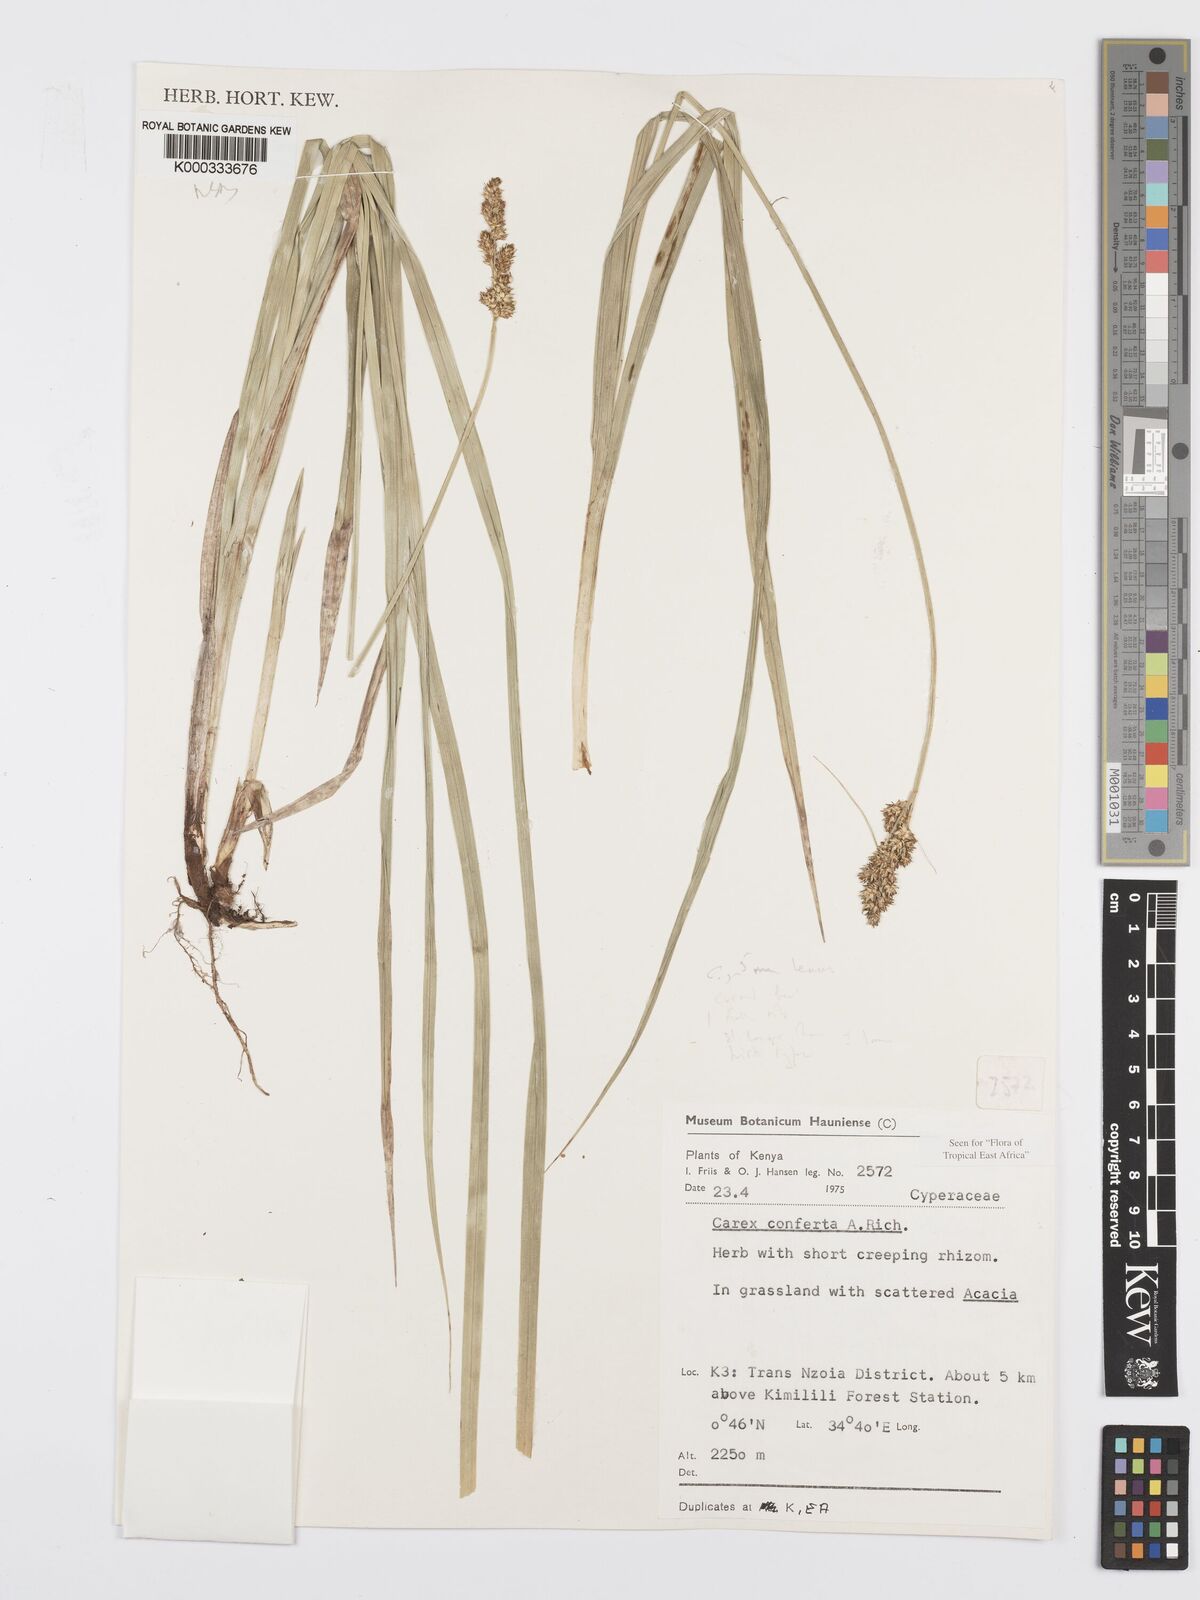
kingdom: Plantae
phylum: Tracheophyta
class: Liliopsida
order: Poales
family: Cyperaceae
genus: Carex
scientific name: Carex conferta
